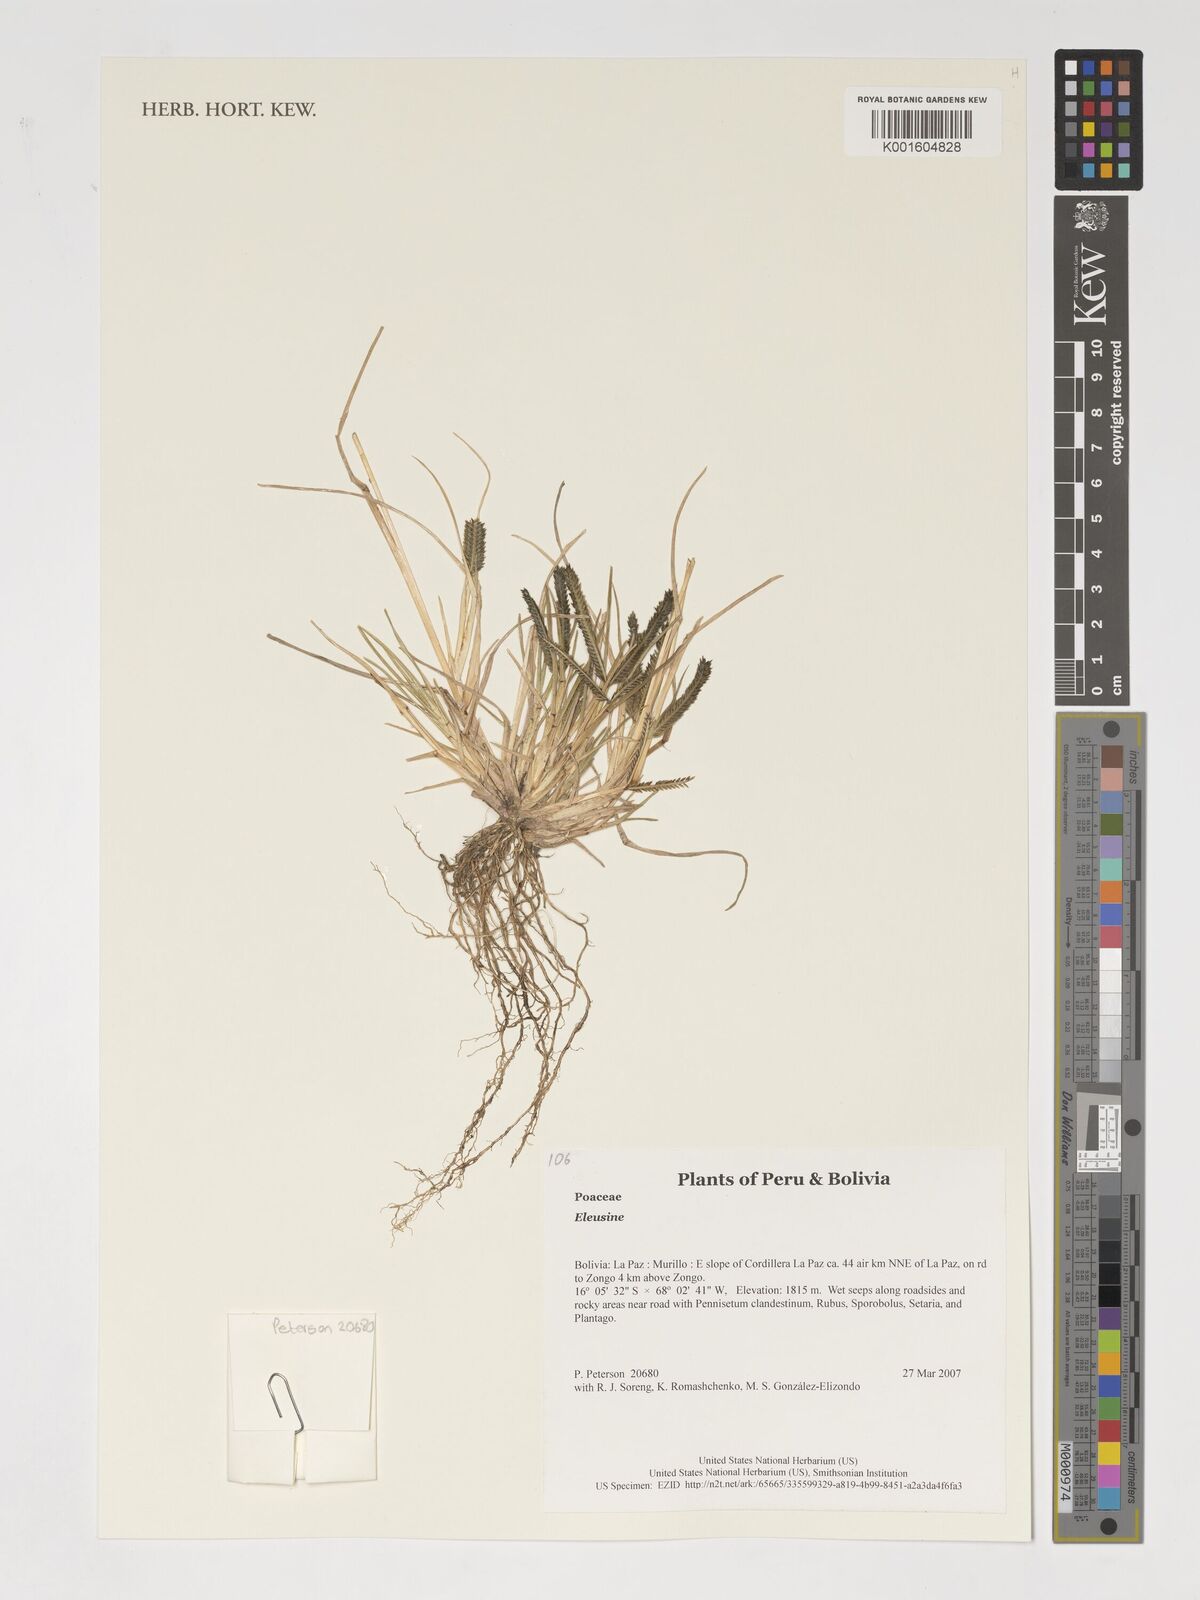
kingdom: Plantae
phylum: Tracheophyta
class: Liliopsida
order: Poales
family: Poaceae
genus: Eleusine
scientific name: Eleusine
